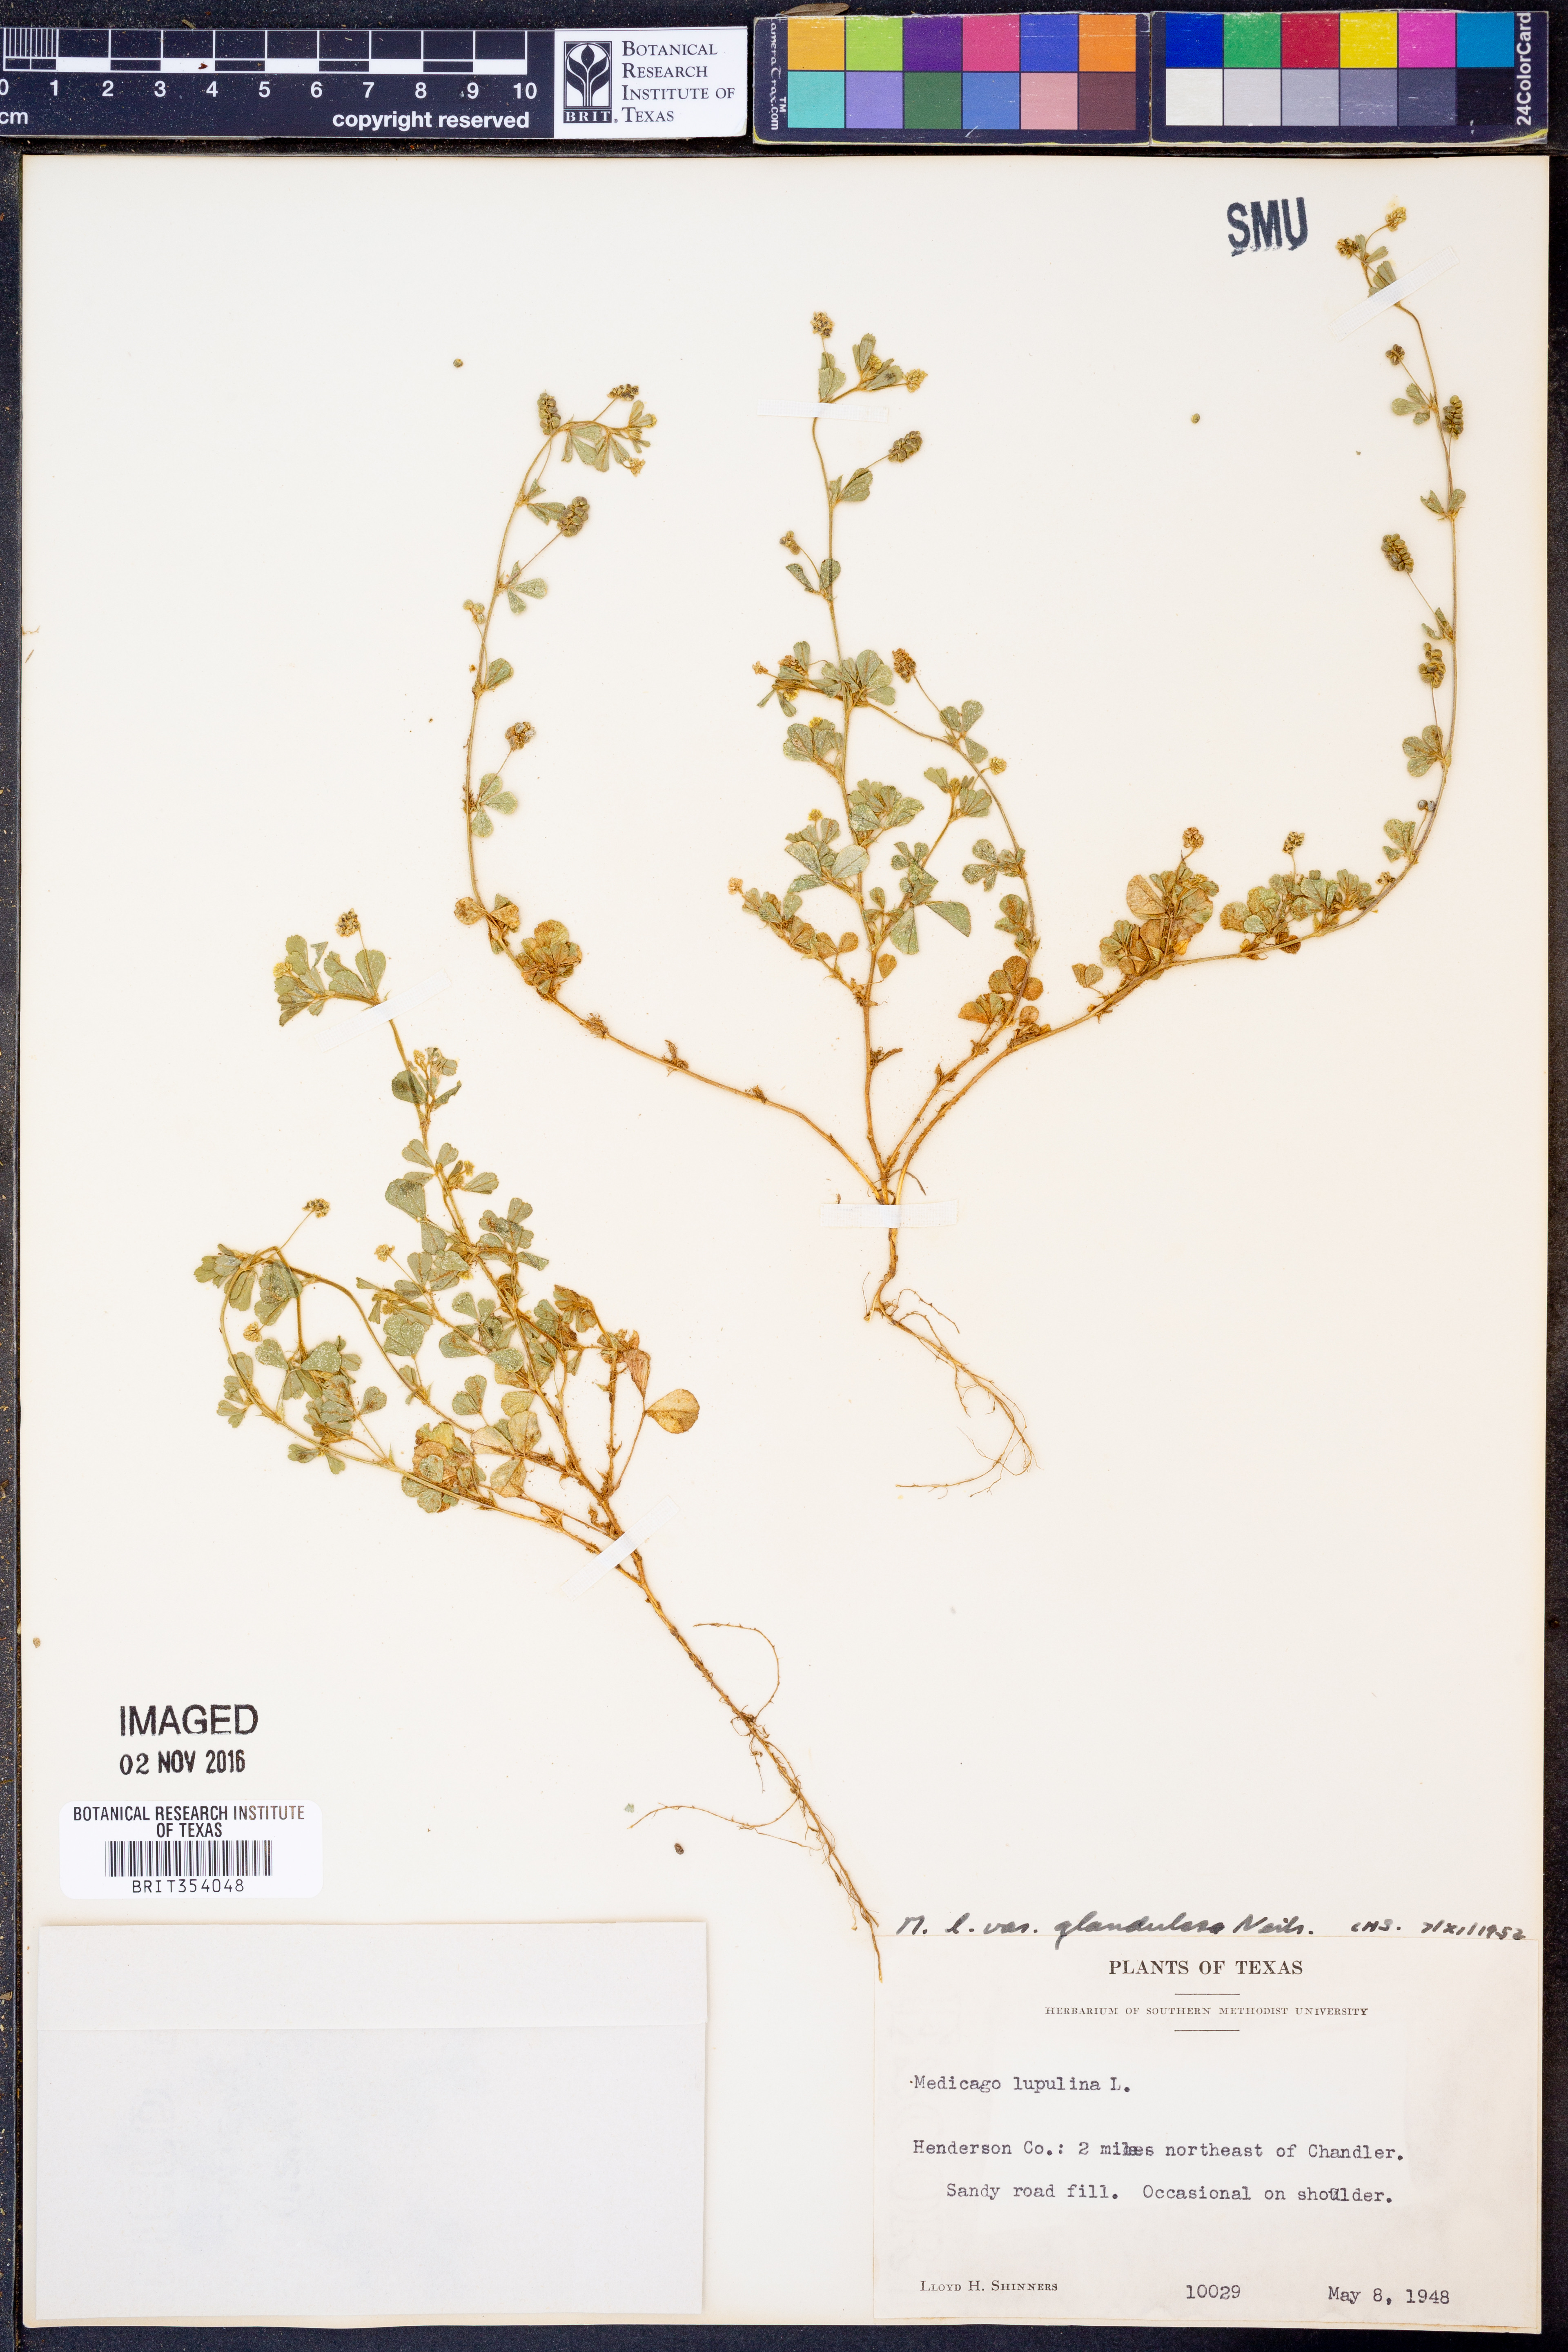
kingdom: Plantae
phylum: Tracheophyta
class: Magnoliopsida
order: Fabales
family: Fabaceae
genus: Medicago
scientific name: Medicago lupulina
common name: Black medick
